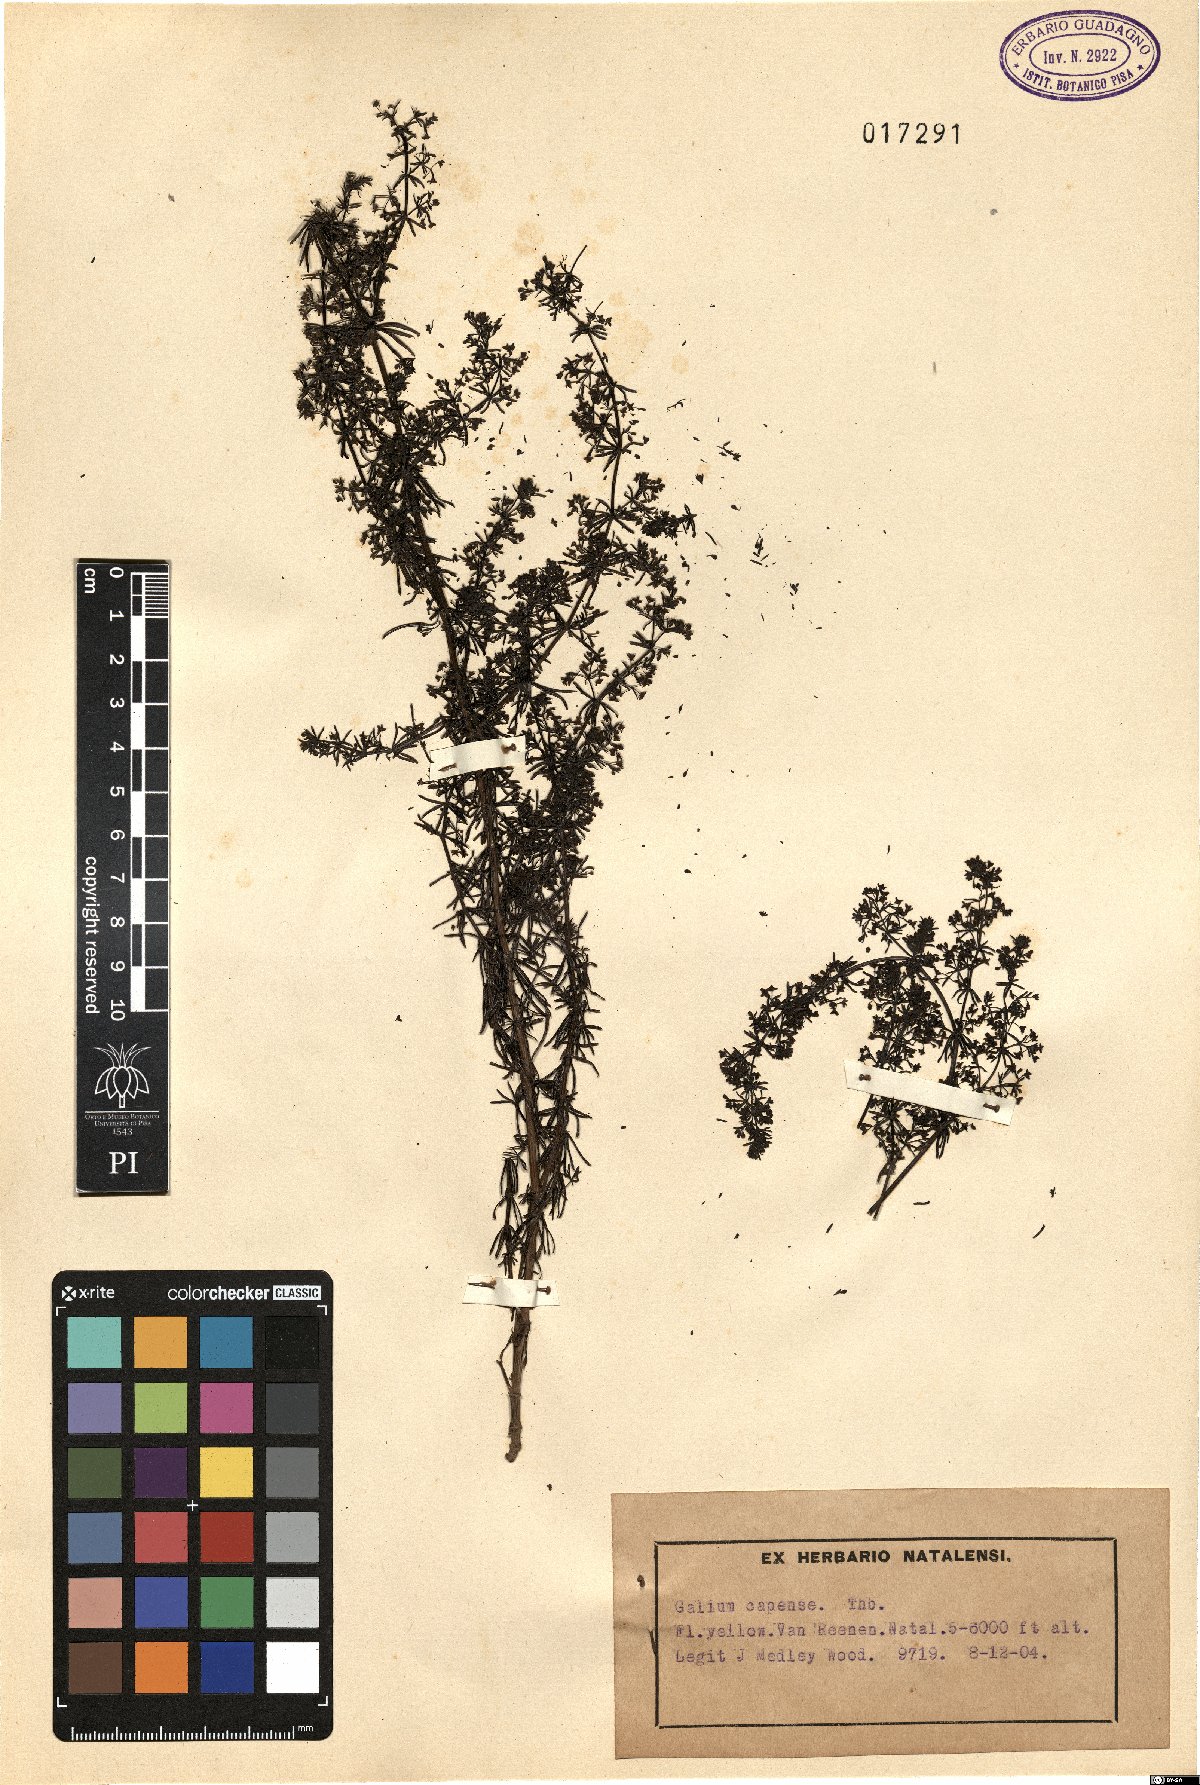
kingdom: Plantae
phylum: Tracheophyta
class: Magnoliopsida
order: Gentianales
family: Rubiaceae
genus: Galium
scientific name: Galium capense
